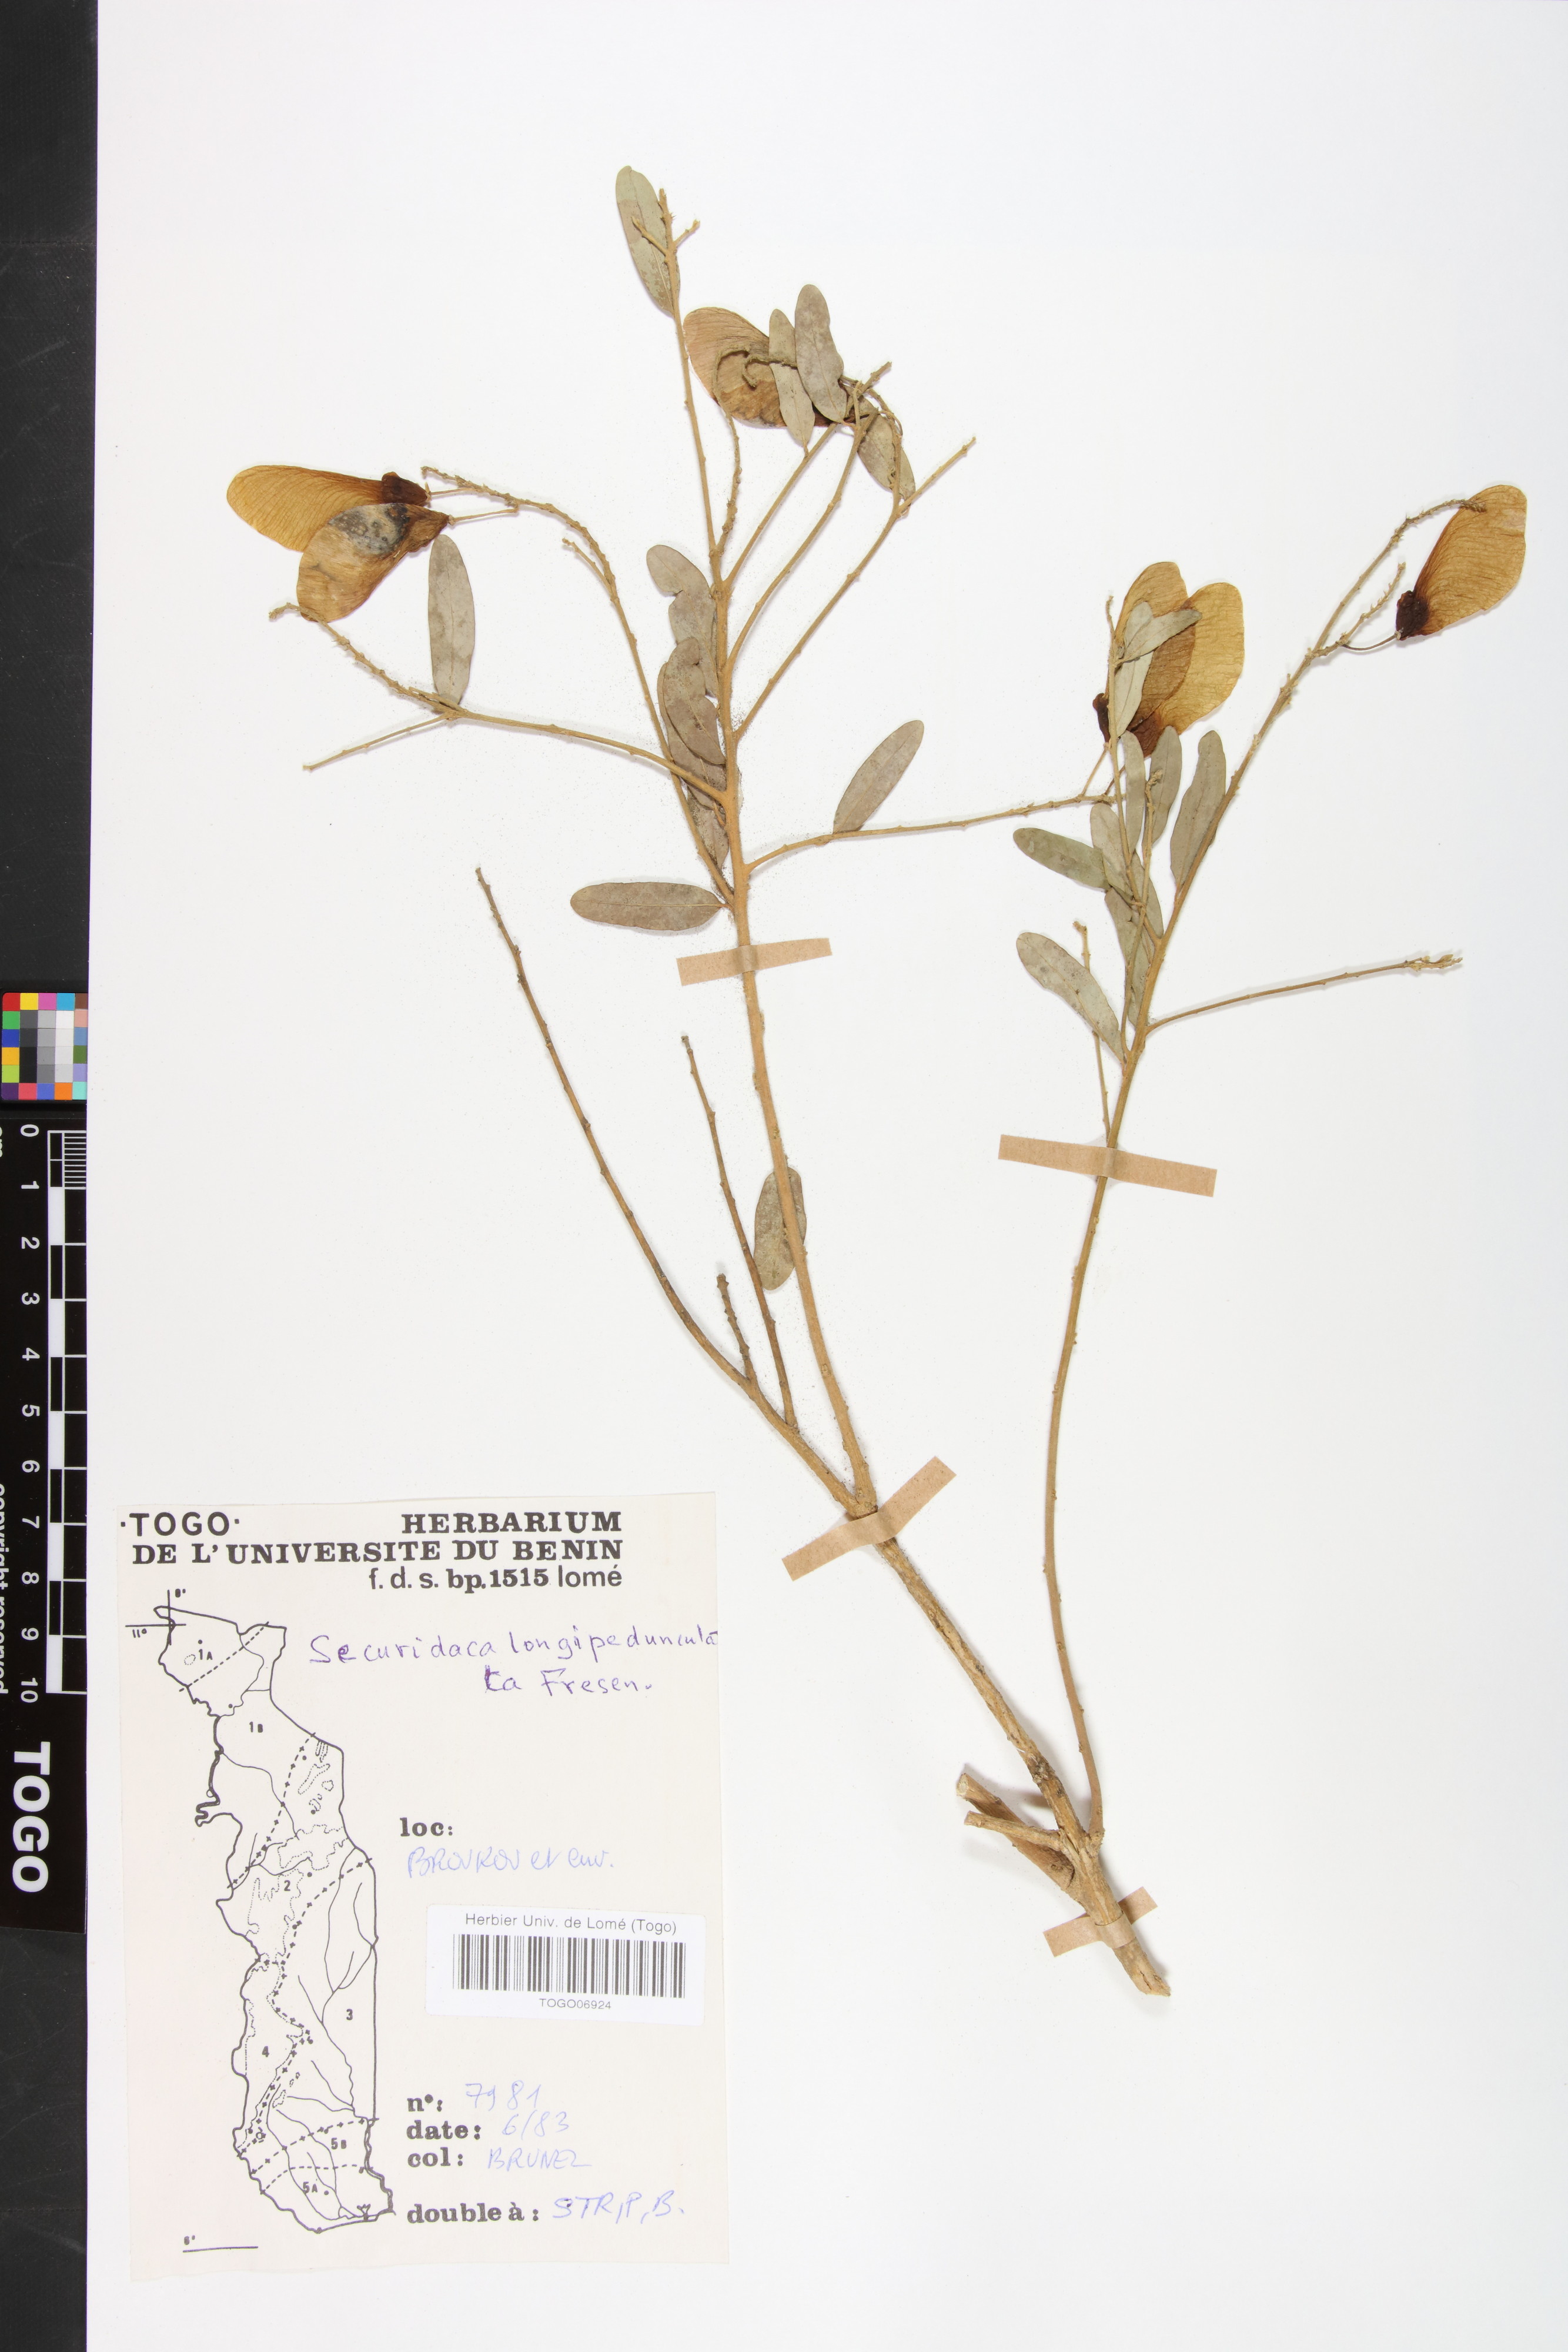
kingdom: Plantae
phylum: Tracheophyta
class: Magnoliopsida
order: Fabales
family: Polygalaceae
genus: Securidaca
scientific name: Securidaca longepedunculata
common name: Violet tree
